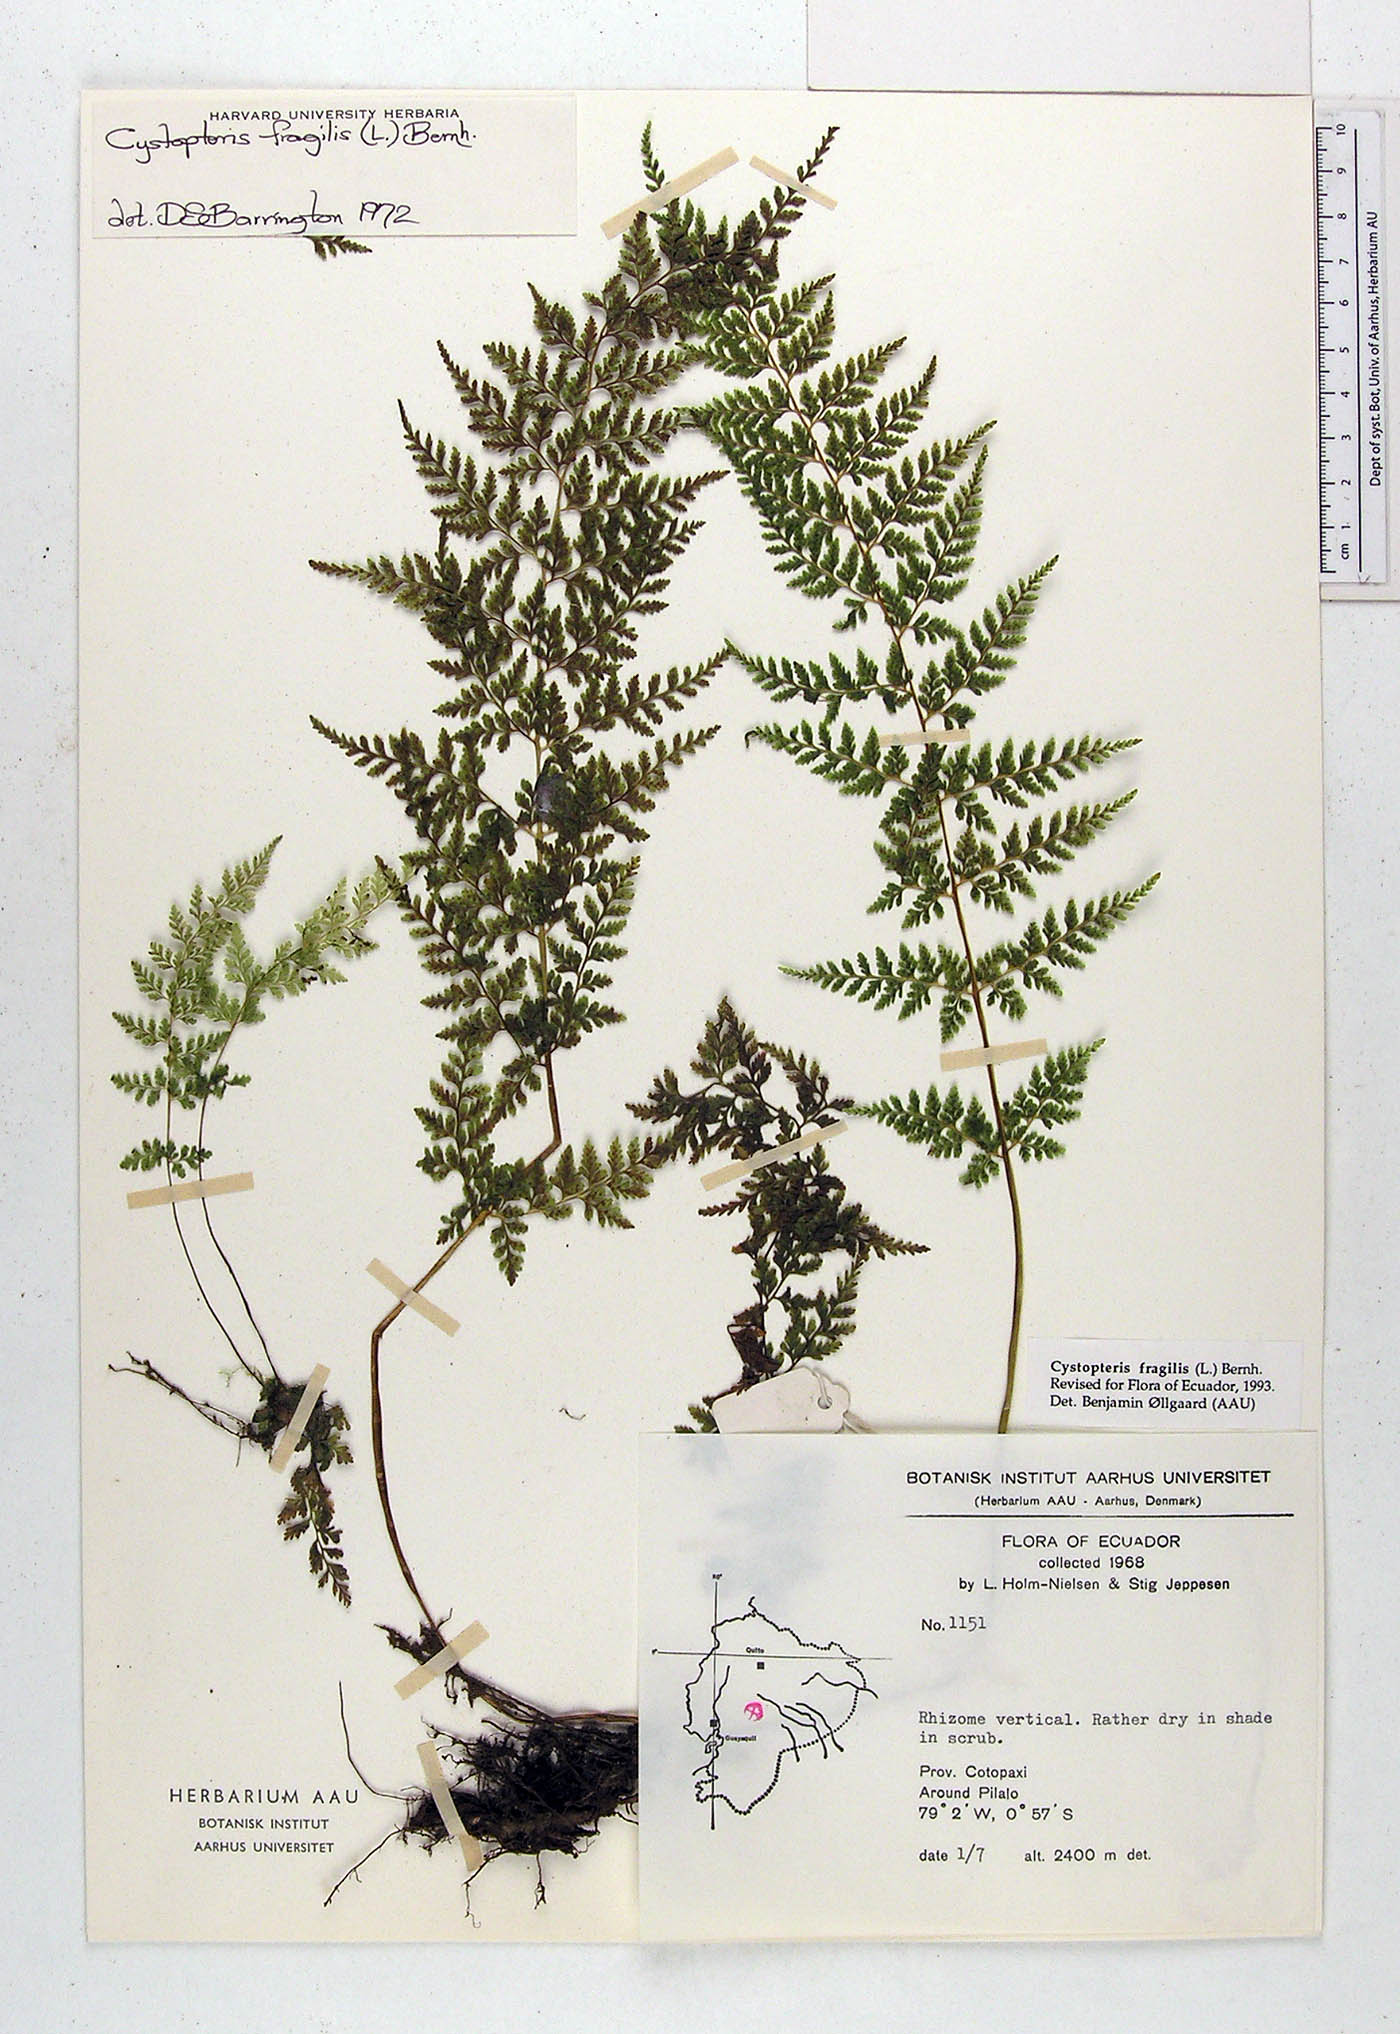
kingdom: Plantae
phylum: Tracheophyta
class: Polypodiopsida
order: Polypodiales
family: Cystopteridaceae
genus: Cystopteris
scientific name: Cystopteris fragilis
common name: Brittle bladder fern
